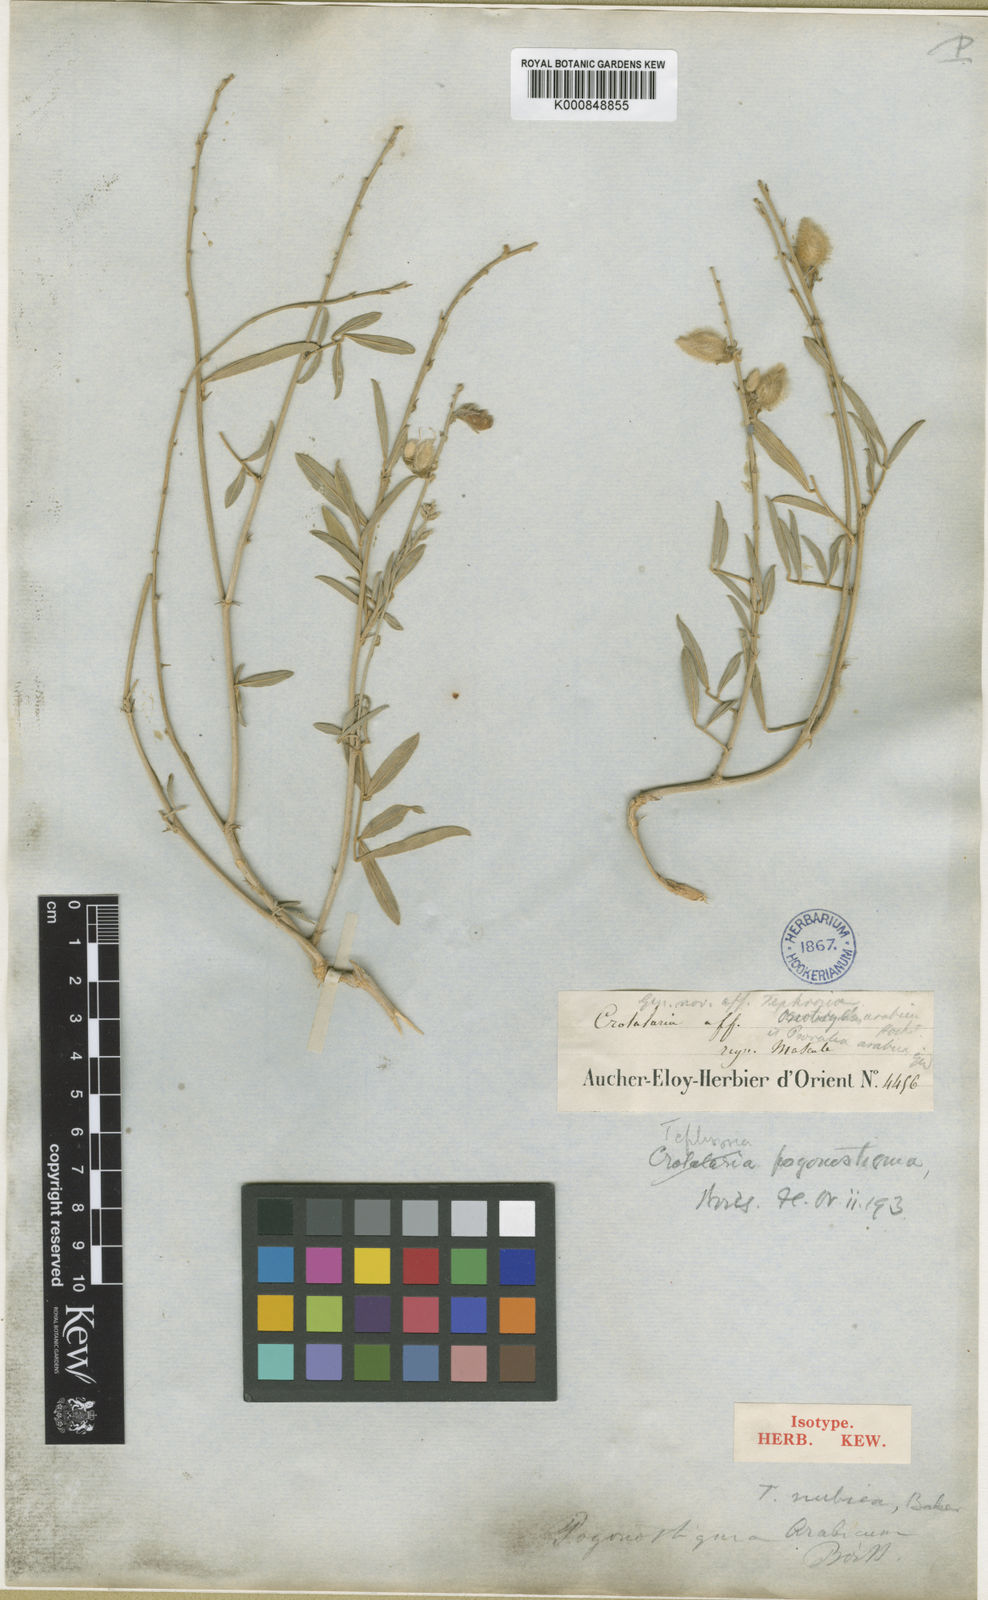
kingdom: Plantae
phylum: Tracheophyta
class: Magnoliopsida
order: Fabales
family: Fabaceae
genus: Tephrosia
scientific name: Tephrosia nubica
